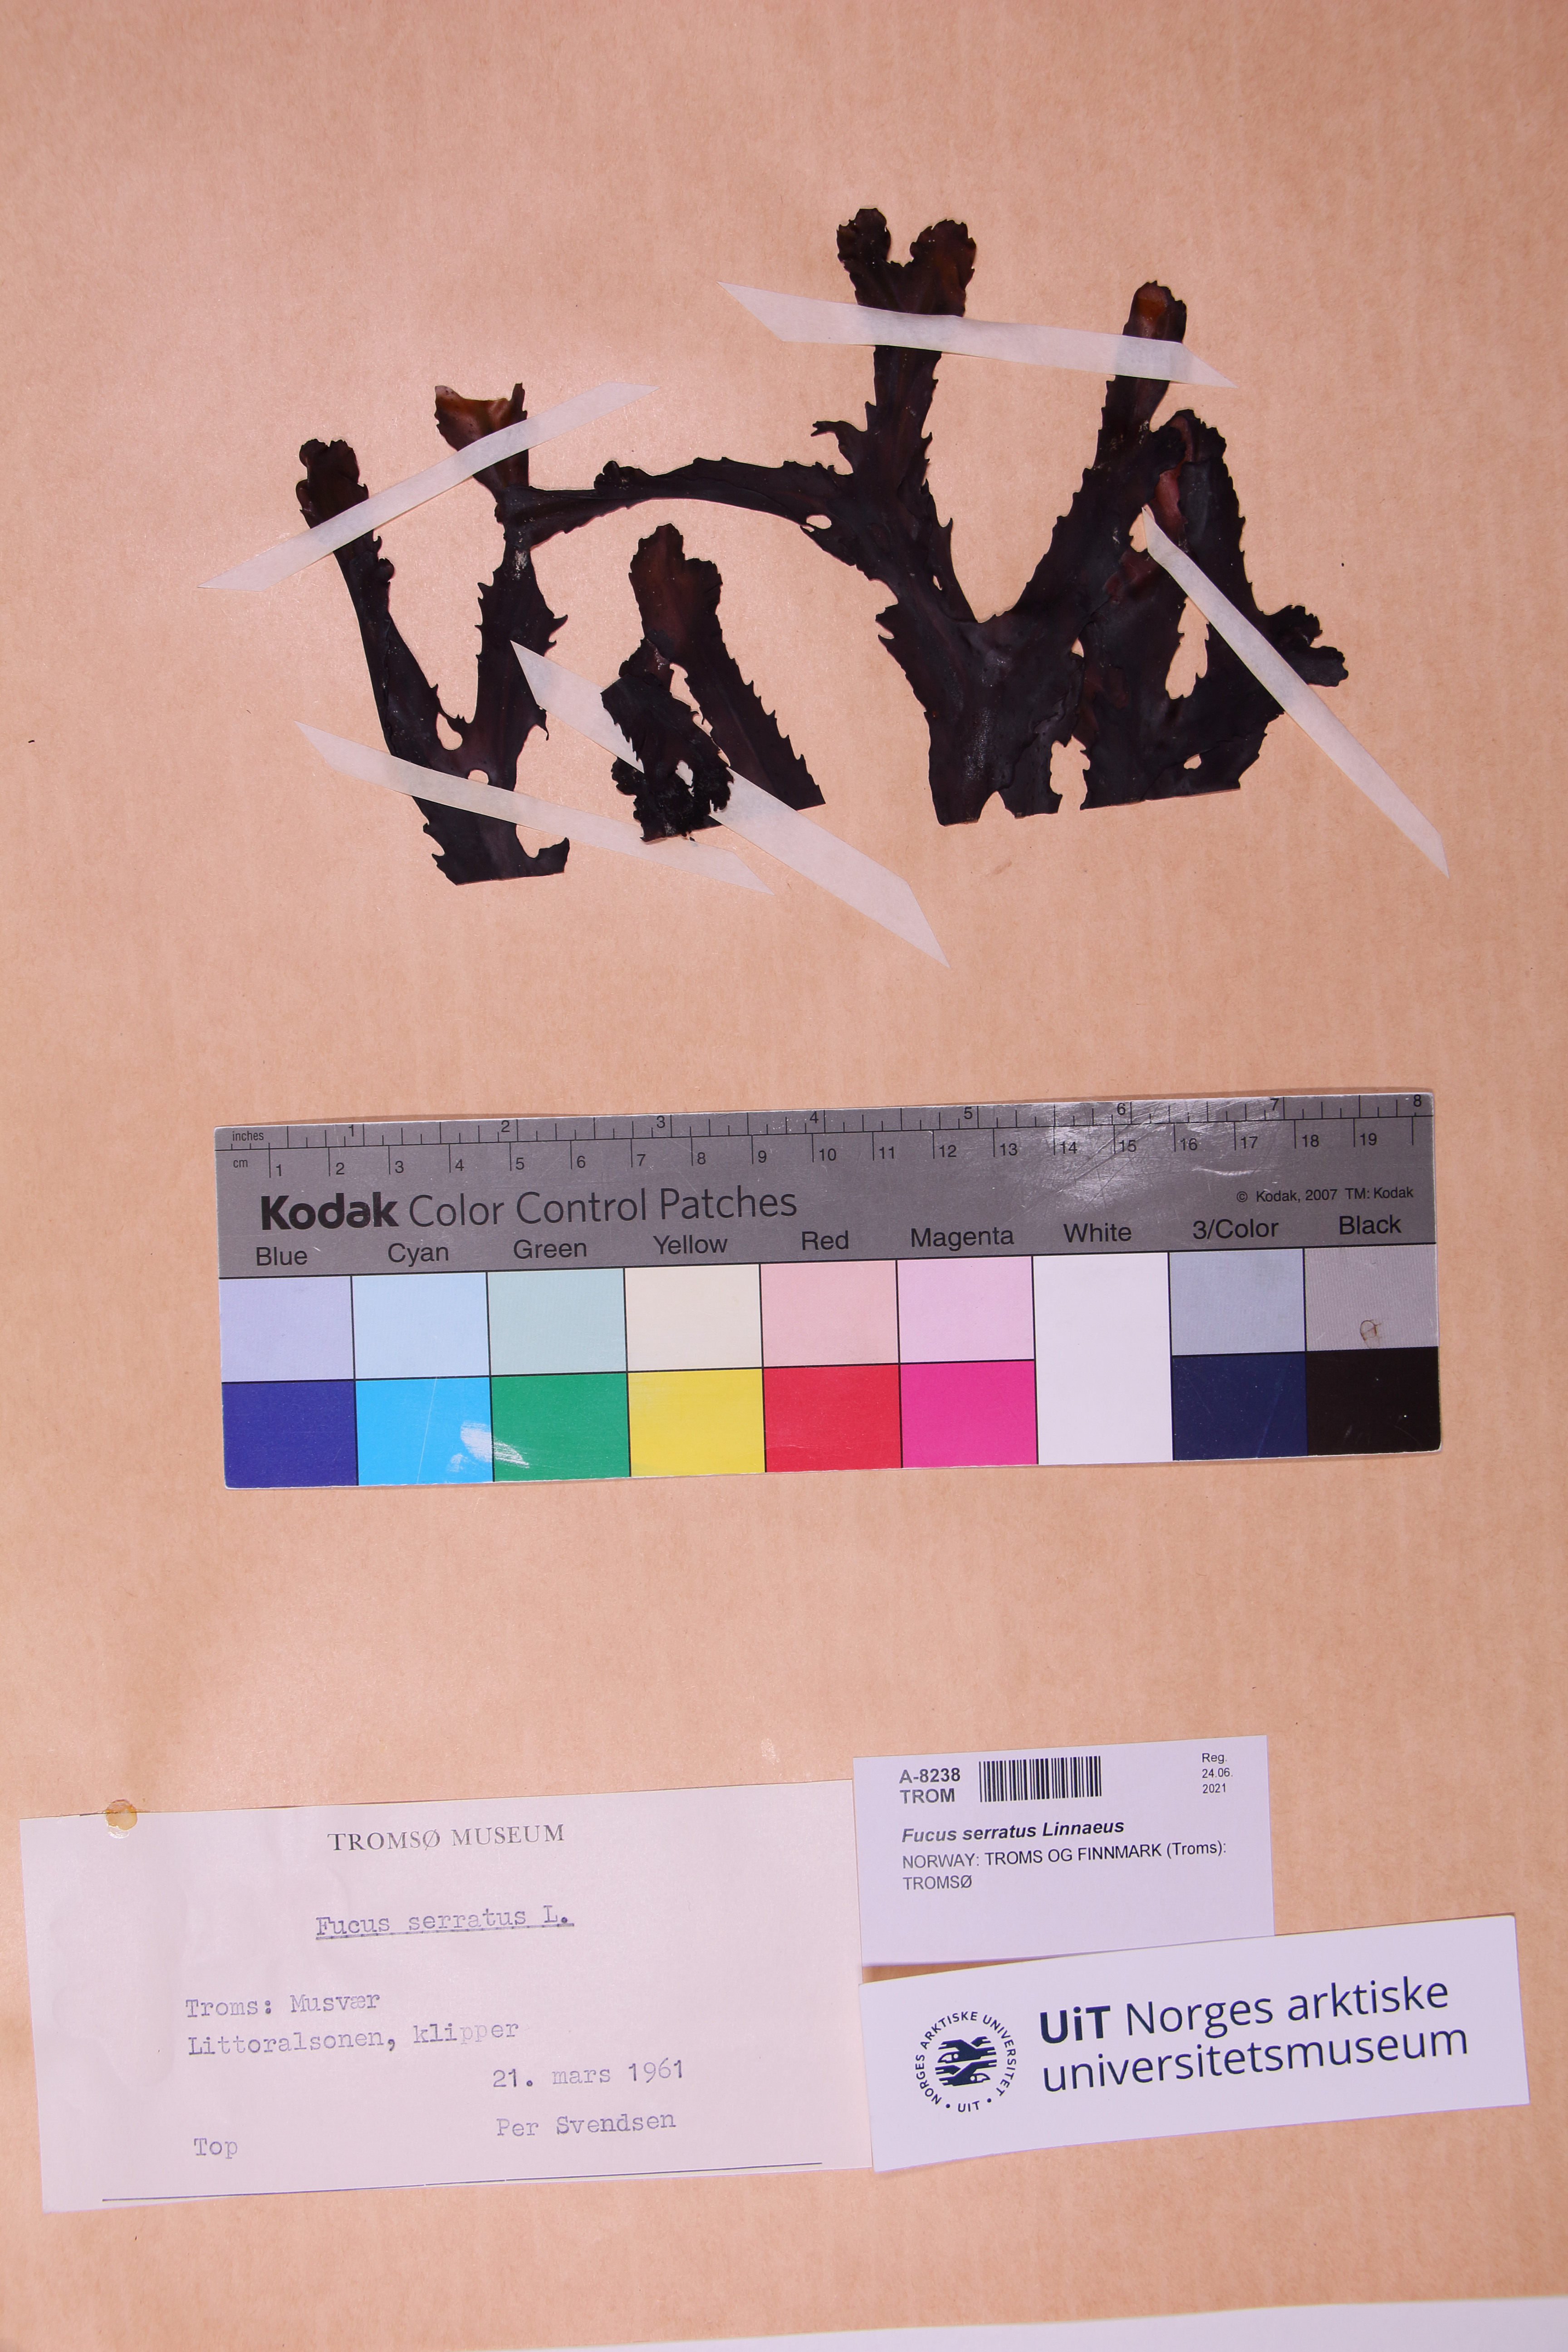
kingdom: Chromista
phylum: Ochrophyta
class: Phaeophyceae
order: Fucales
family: Fucaceae
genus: Fucus
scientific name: Fucus serratus
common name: Toothed wrack
